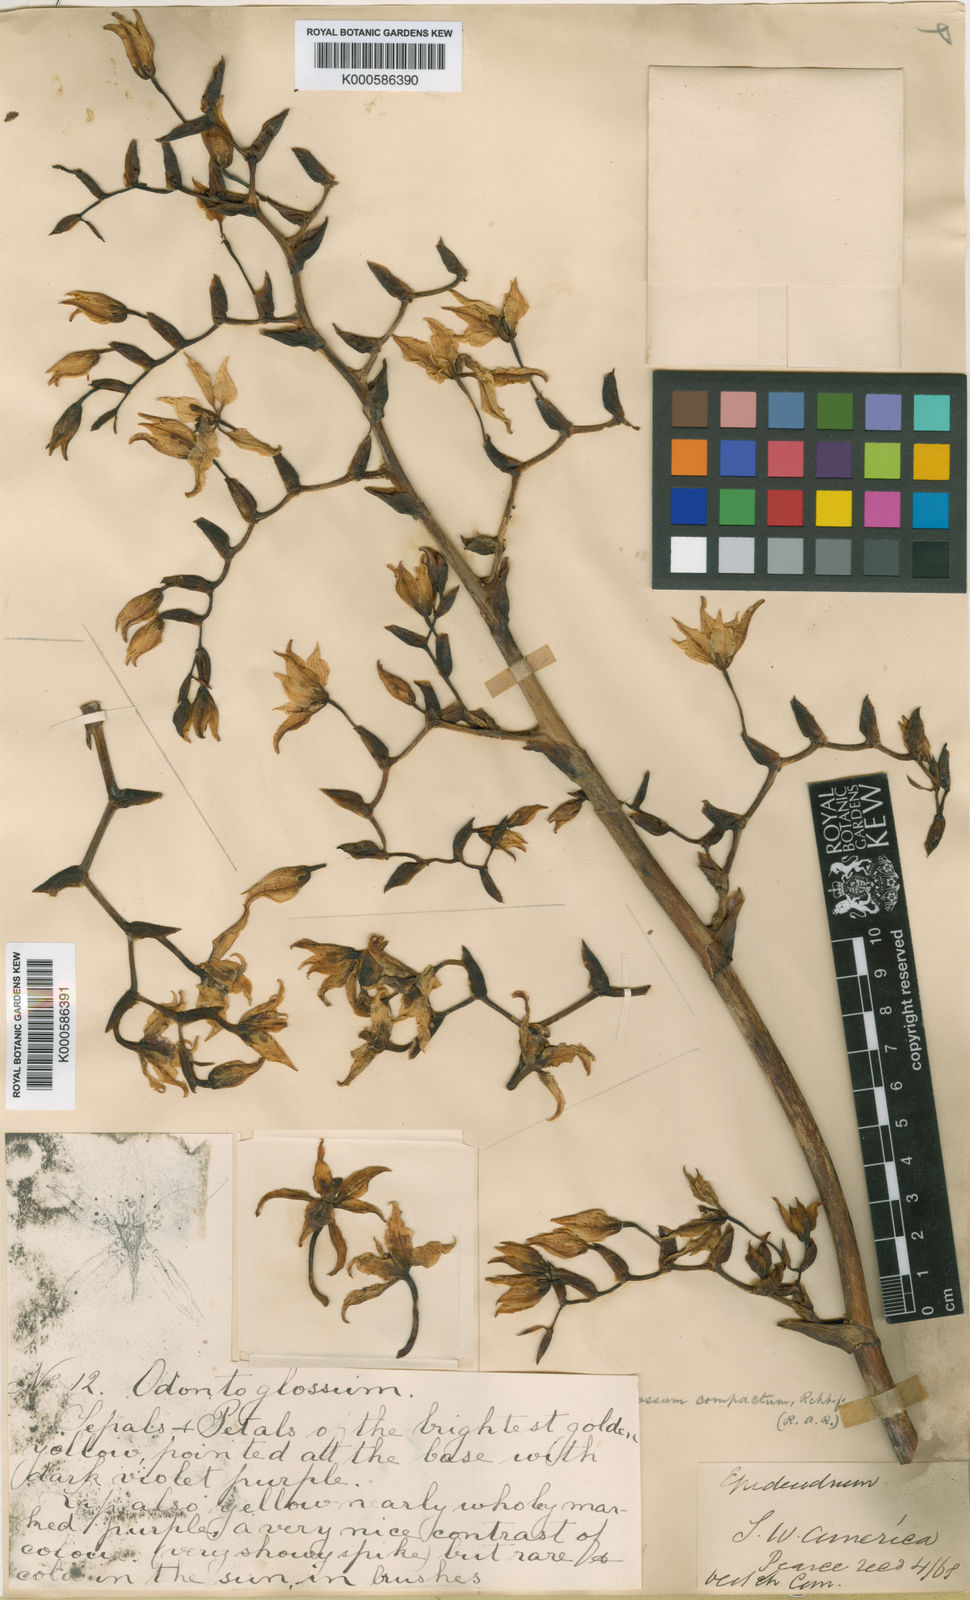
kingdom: Plantae
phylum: Tracheophyta
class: Liliopsida
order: Asparagales
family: Orchidaceae
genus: Cyrtochilum
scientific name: Cyrtochilum
